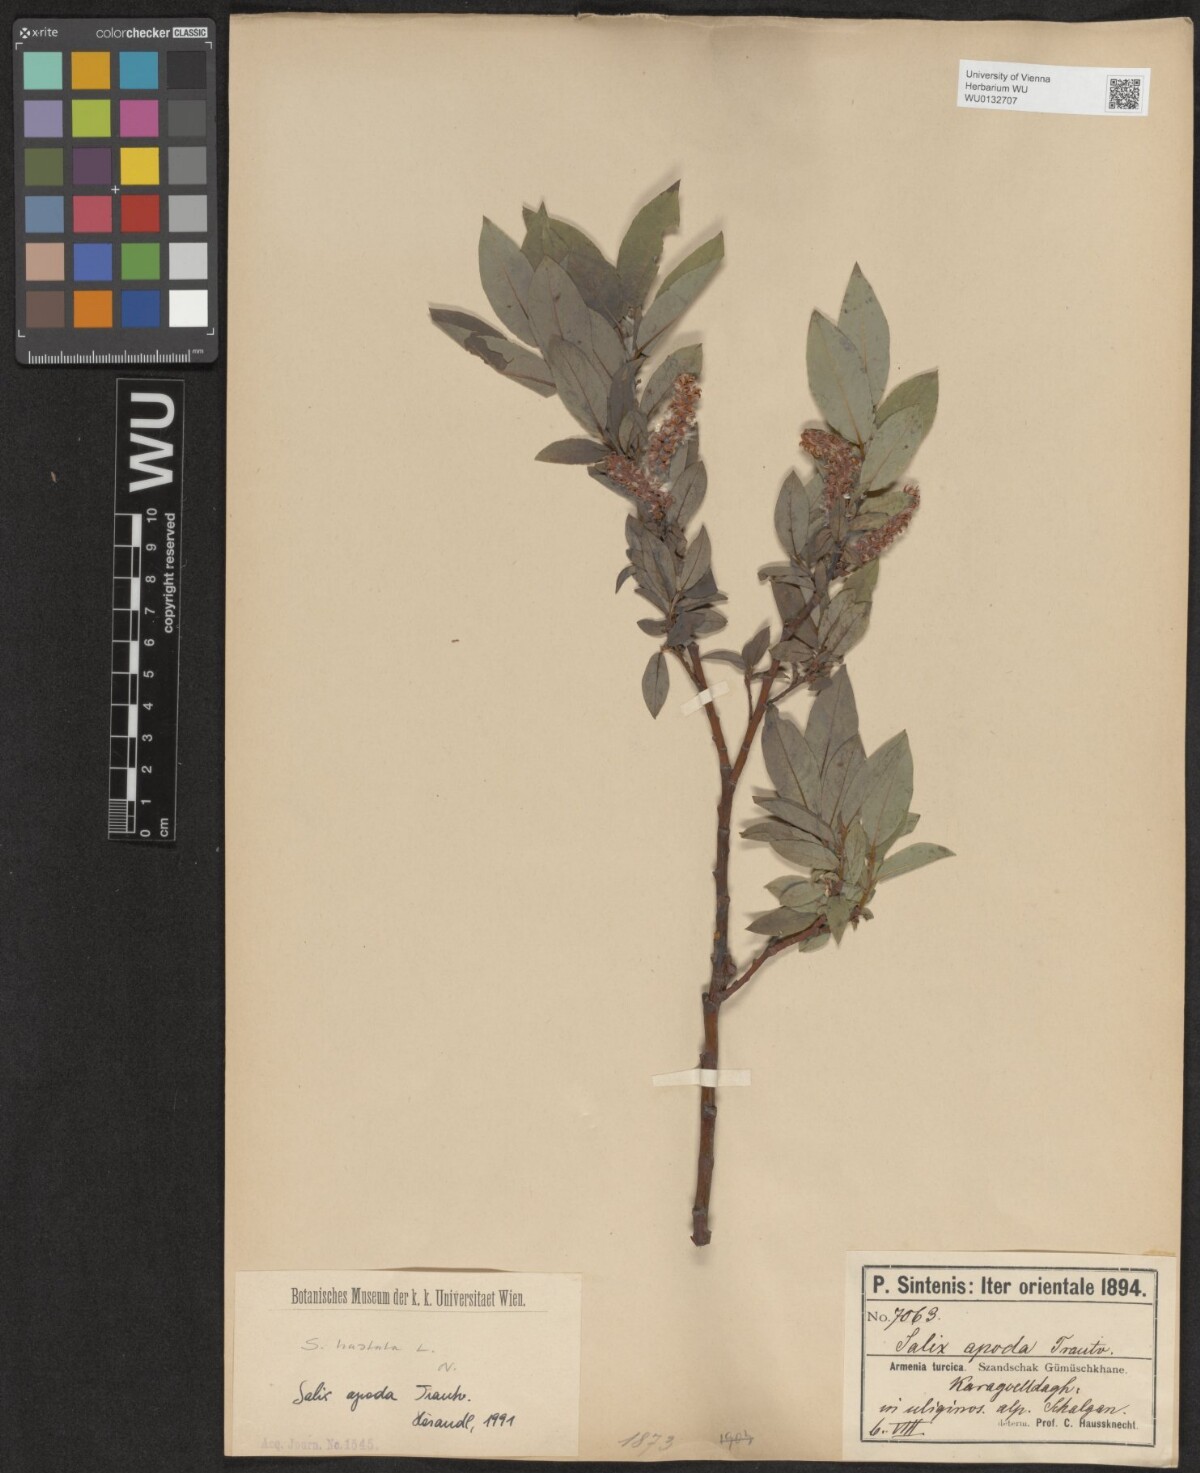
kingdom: Plantae
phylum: Tracheophyta
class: Magnoliopsida
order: Malpighiales
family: Salicaceae
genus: Salix
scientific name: Salix apoda
